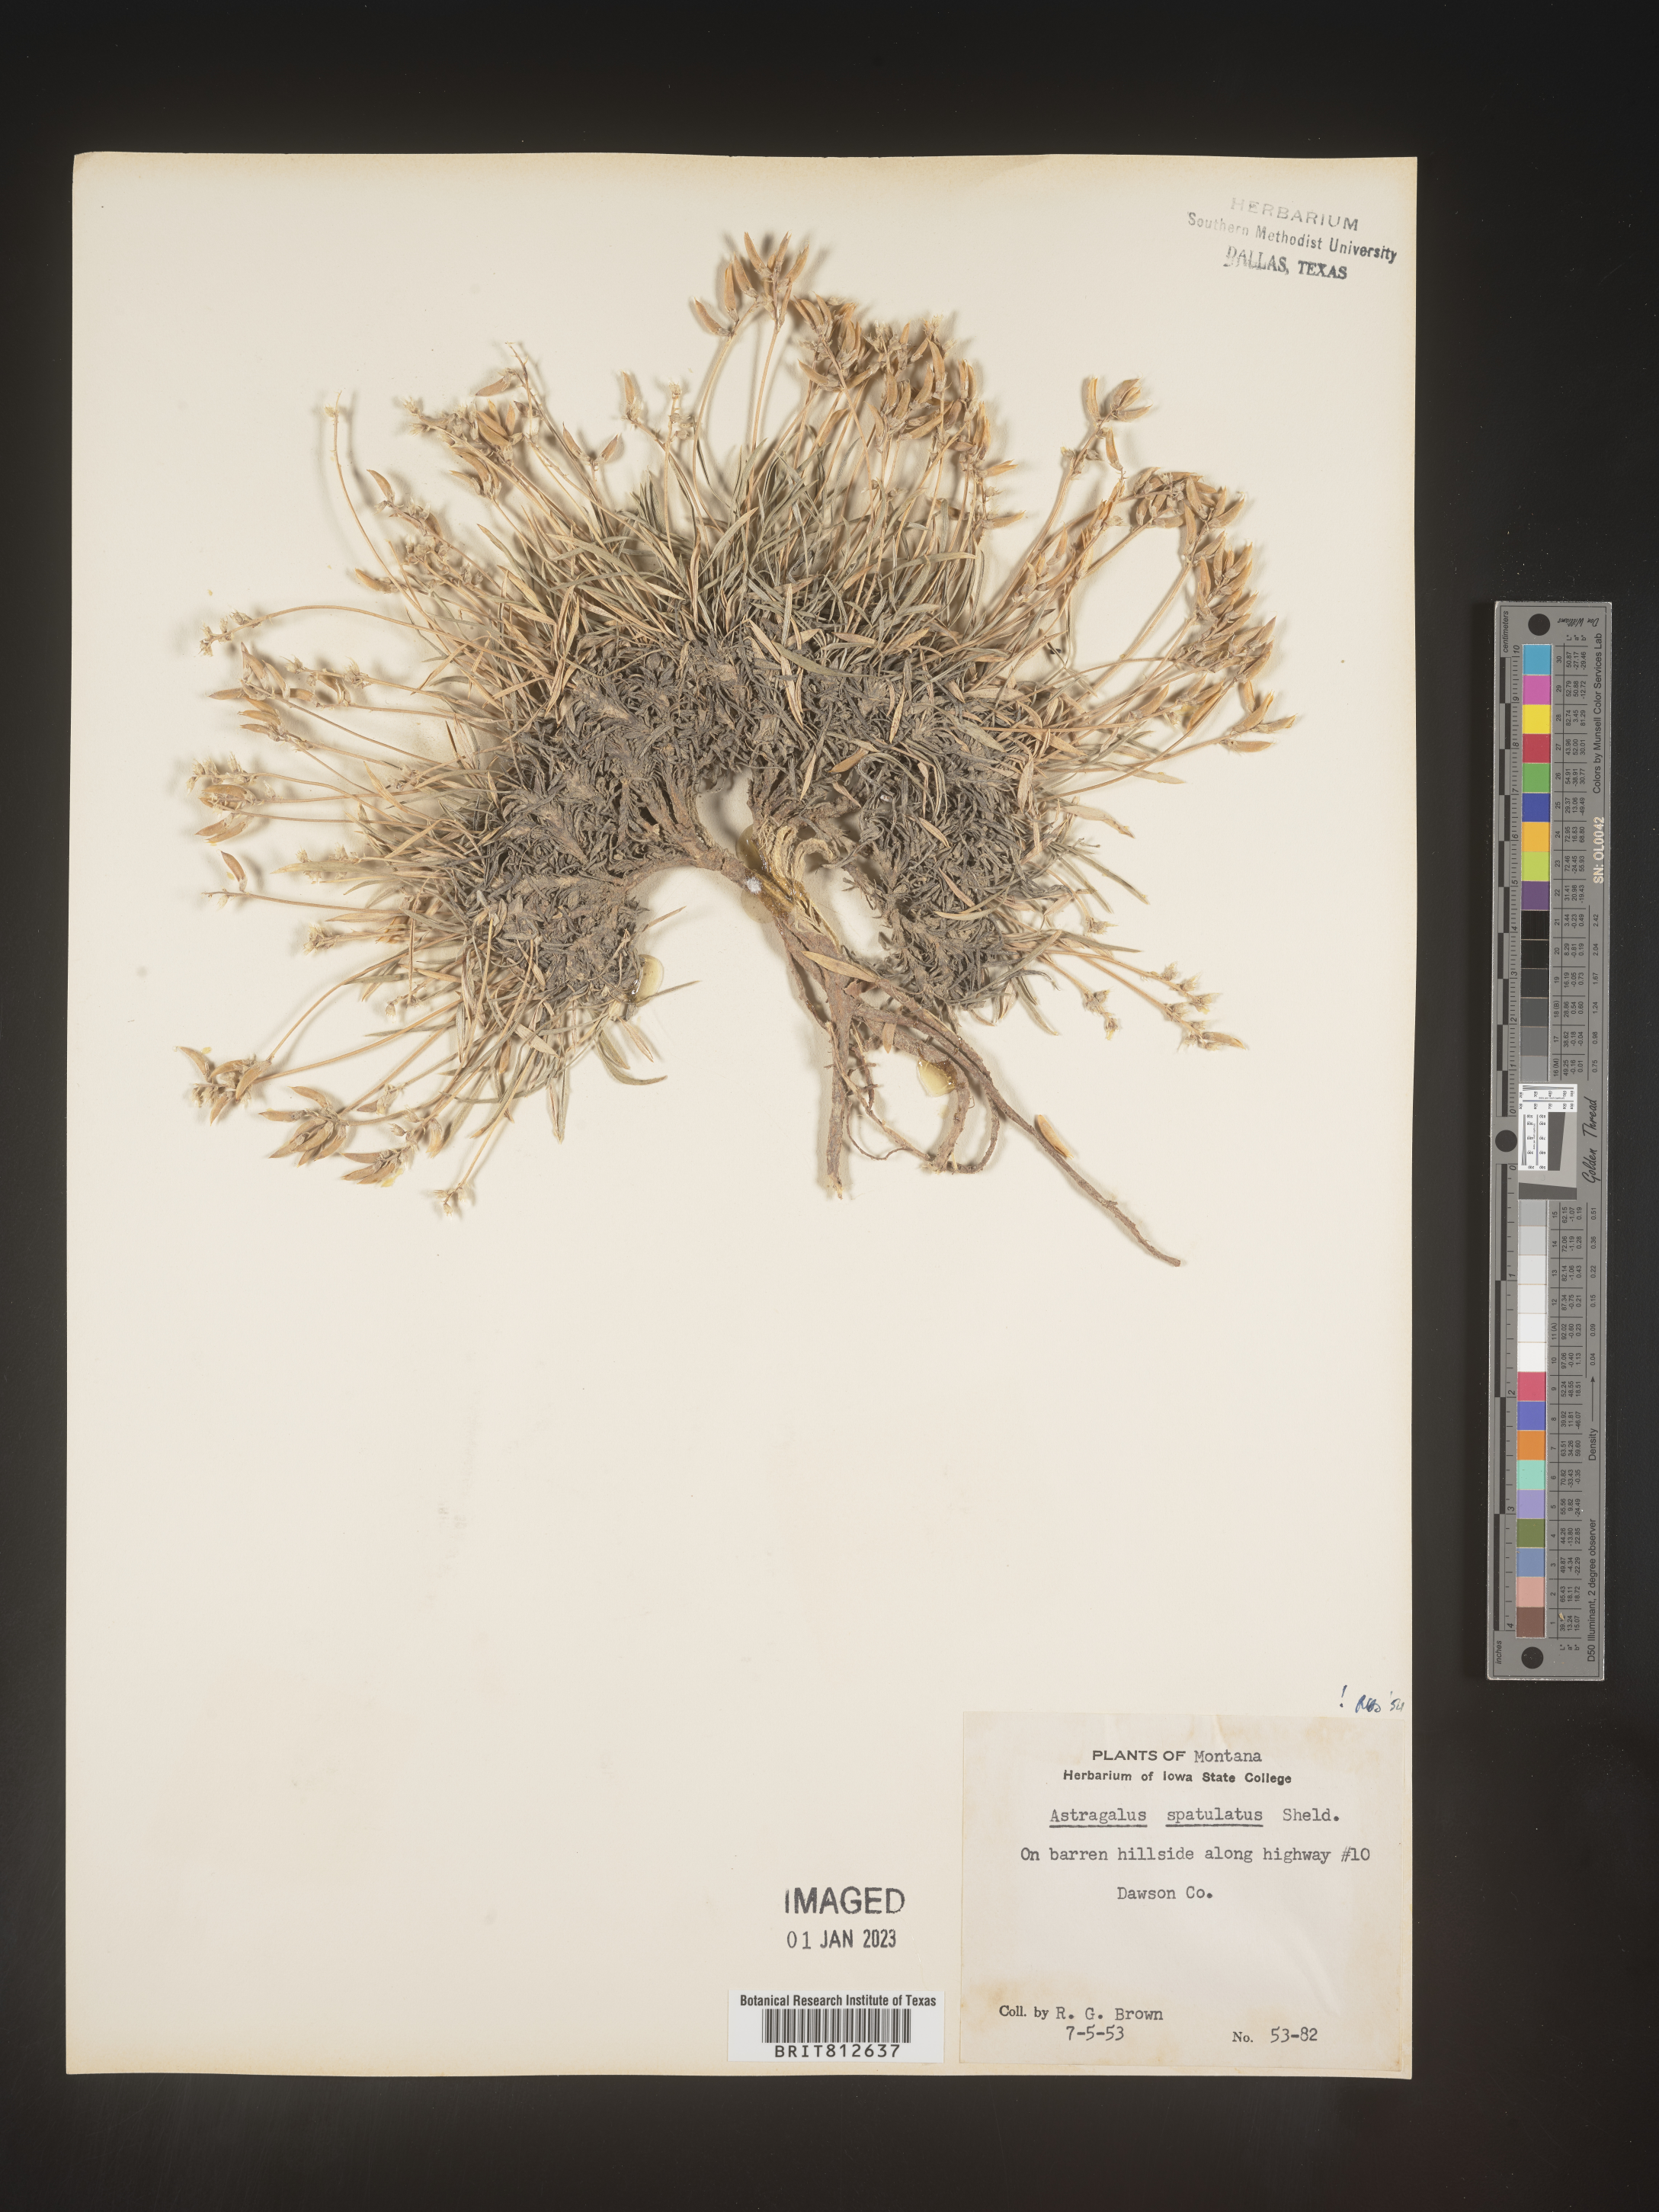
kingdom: Plantae
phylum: Tracheophyta
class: Magnoliopsida
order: Fabales
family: Fabaceae
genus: Astragalus
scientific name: Astragalus
